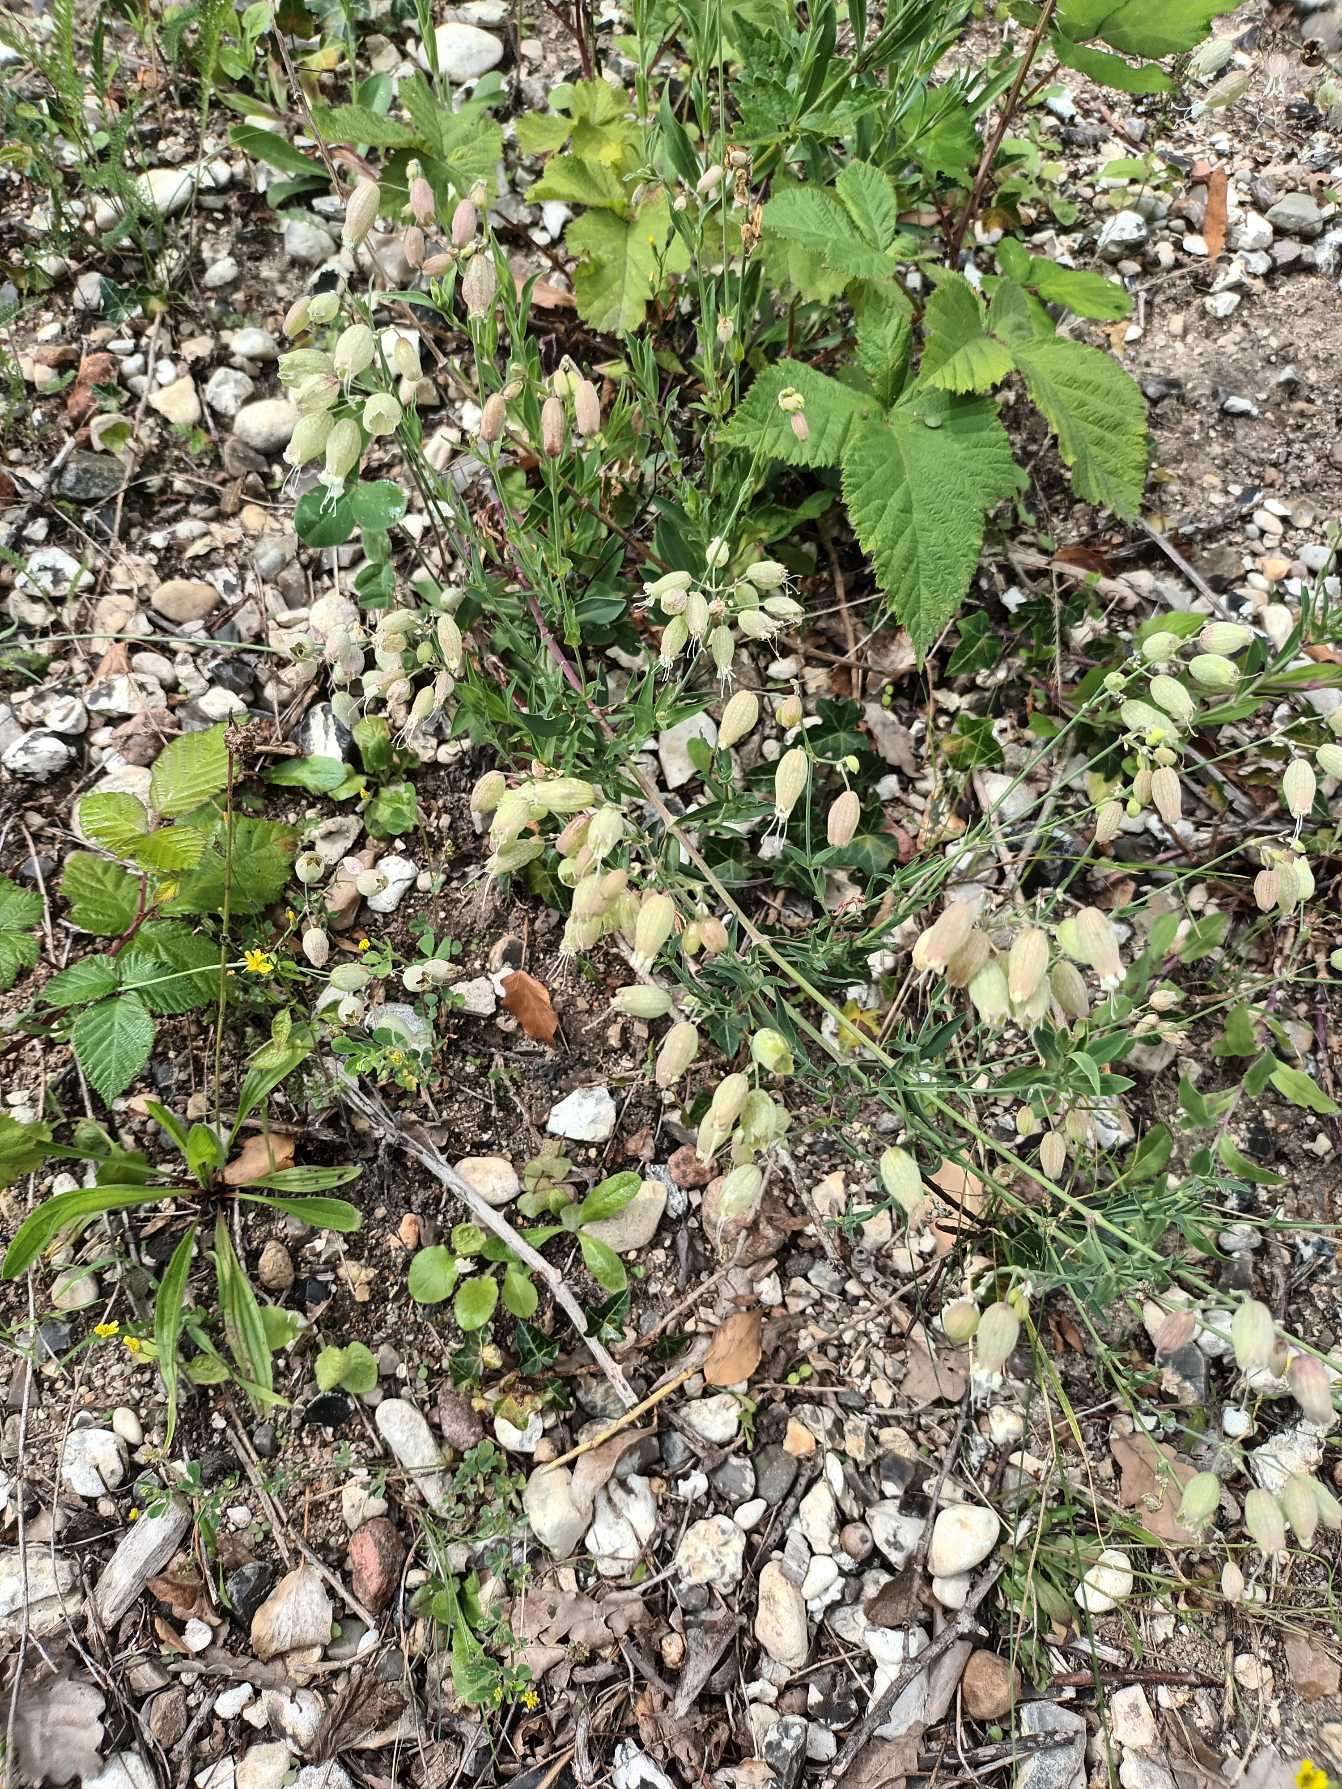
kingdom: Plantae
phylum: Tracheophyta
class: Magnoliopsida
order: Caryophyllales
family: Caryophyllaceae
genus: Silene
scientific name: Silene vulgaris
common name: Blæresmælde
